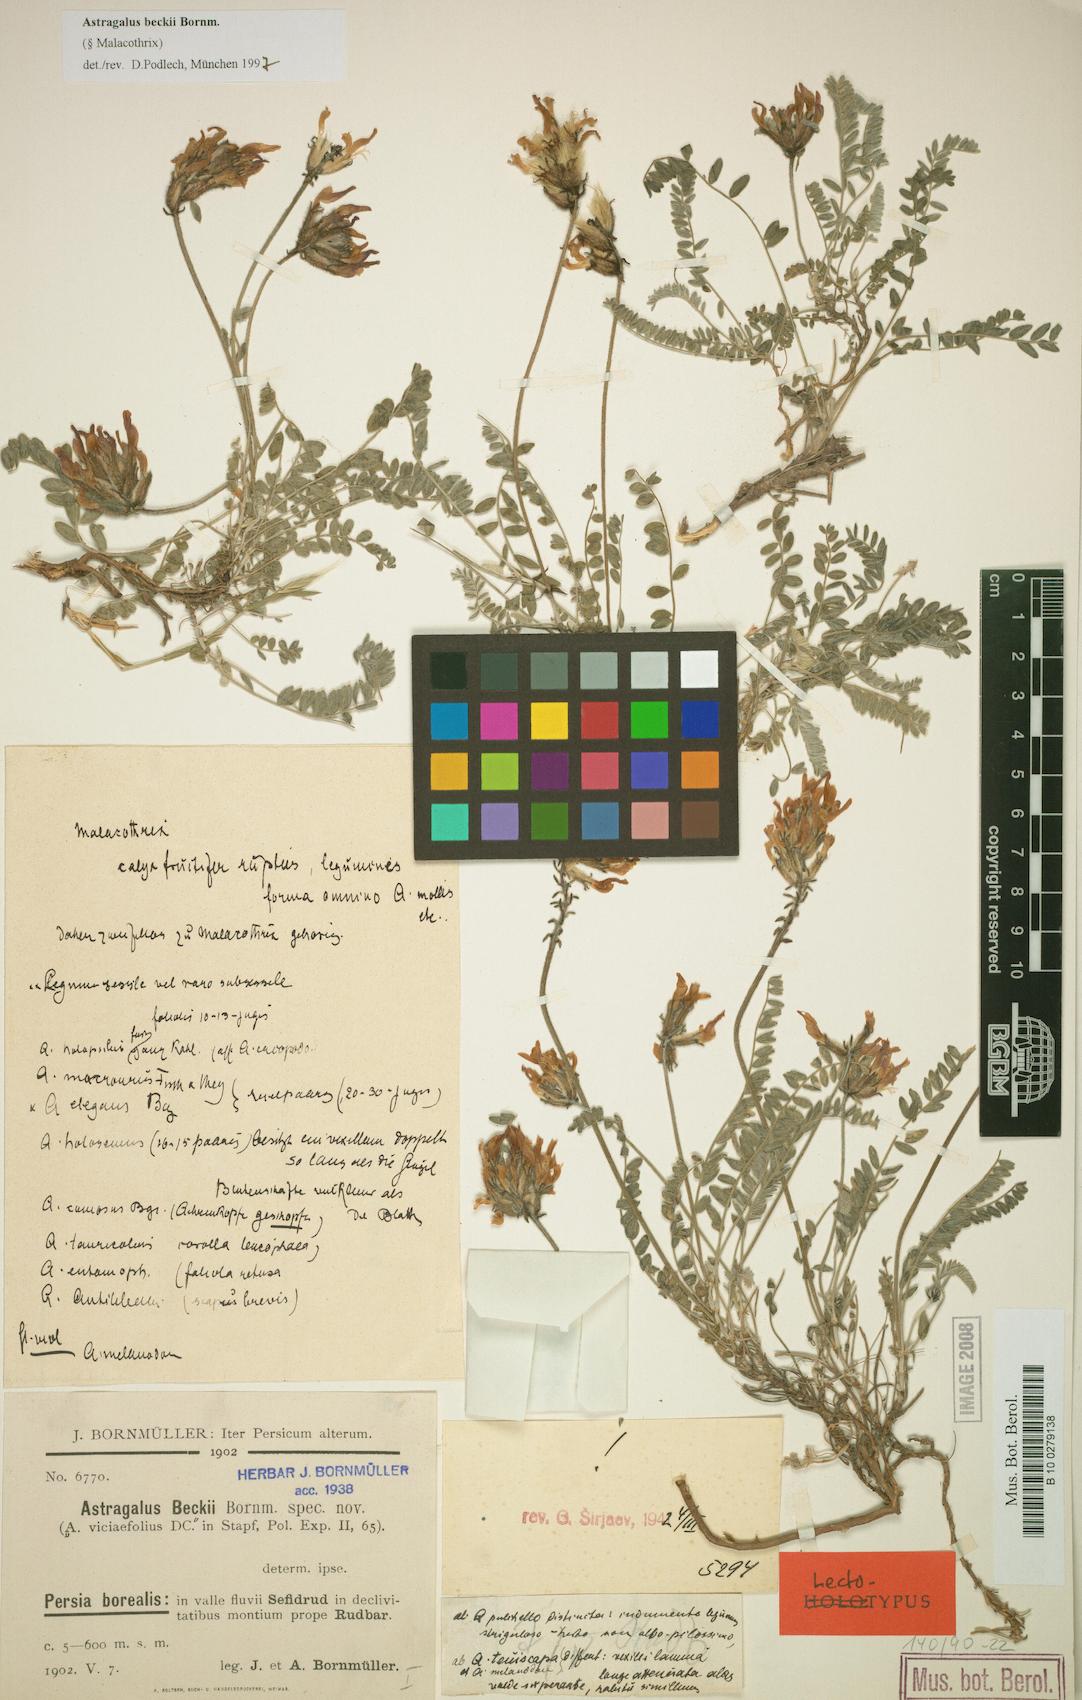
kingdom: Plantae
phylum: Tracheophyta
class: Magnoliopsida
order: Fabales
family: Fabaceae
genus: Astragalus
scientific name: Astragalus beckii
